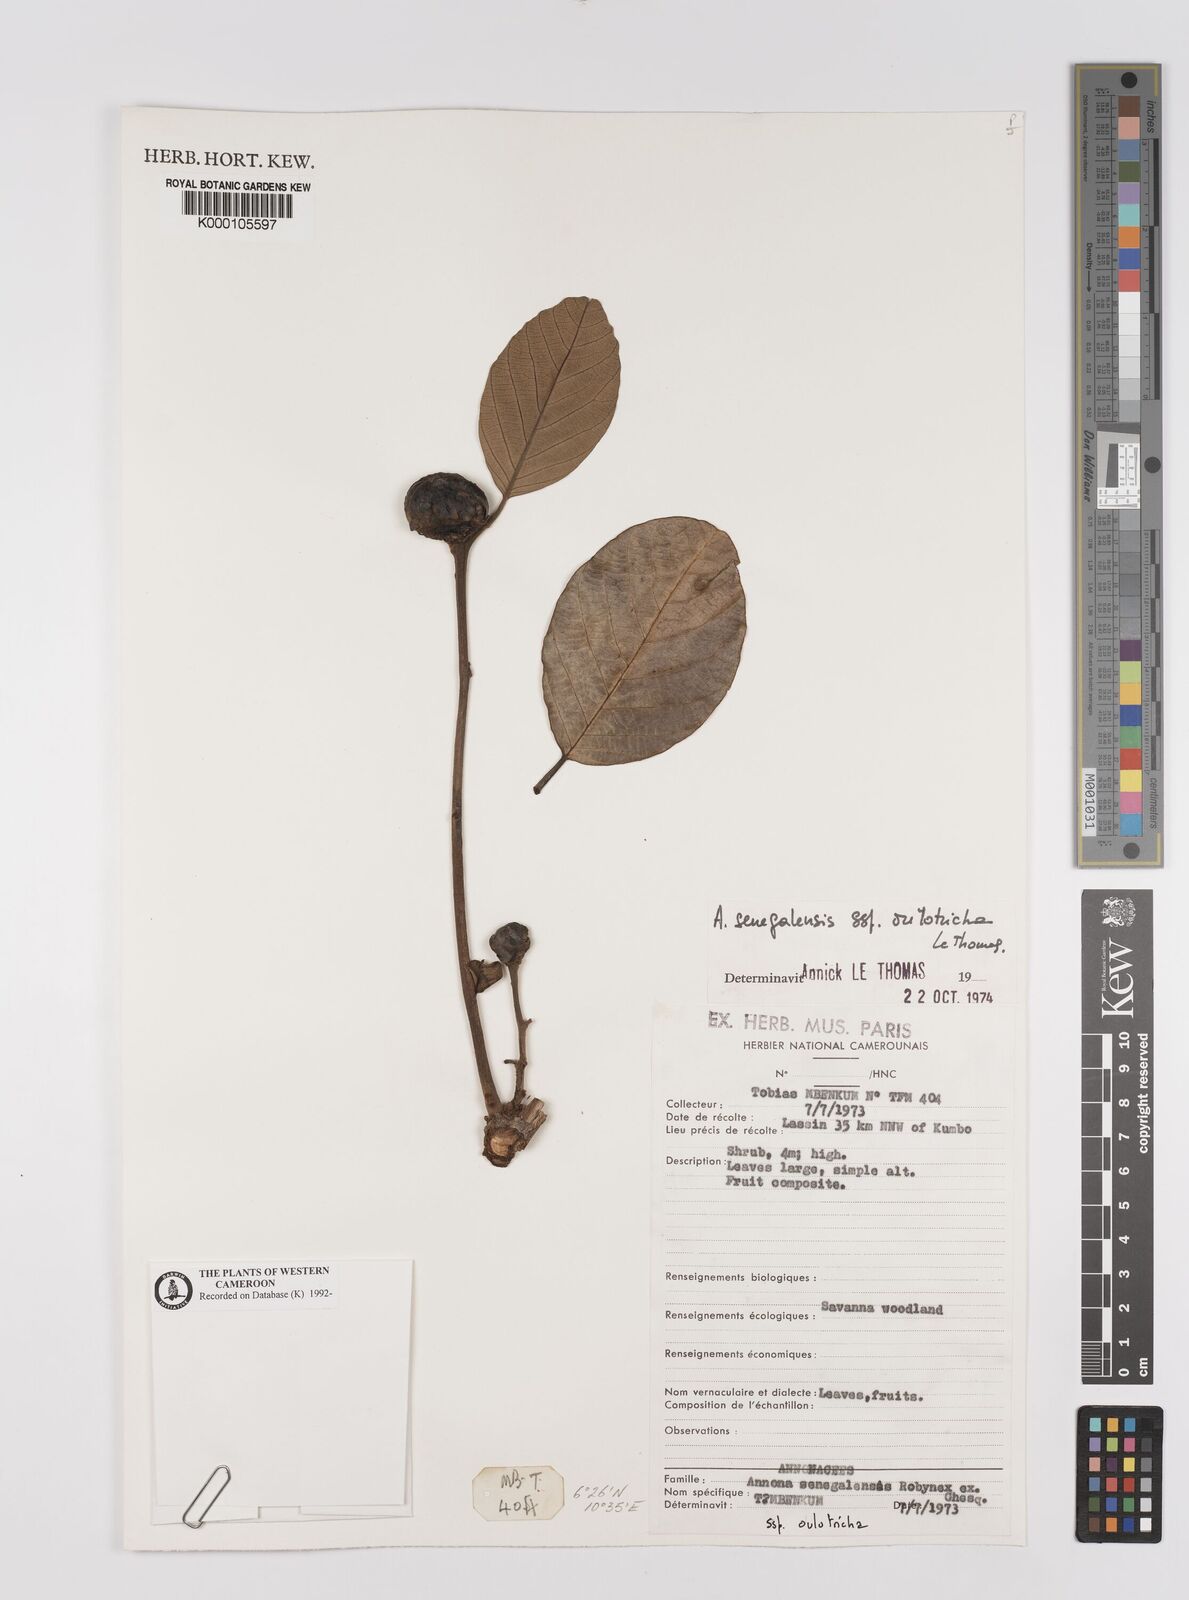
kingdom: Plantae
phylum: Tracheophyta
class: Magnoliopsida
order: Magnoliales
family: Annonaceae
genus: Annona
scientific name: Annona
